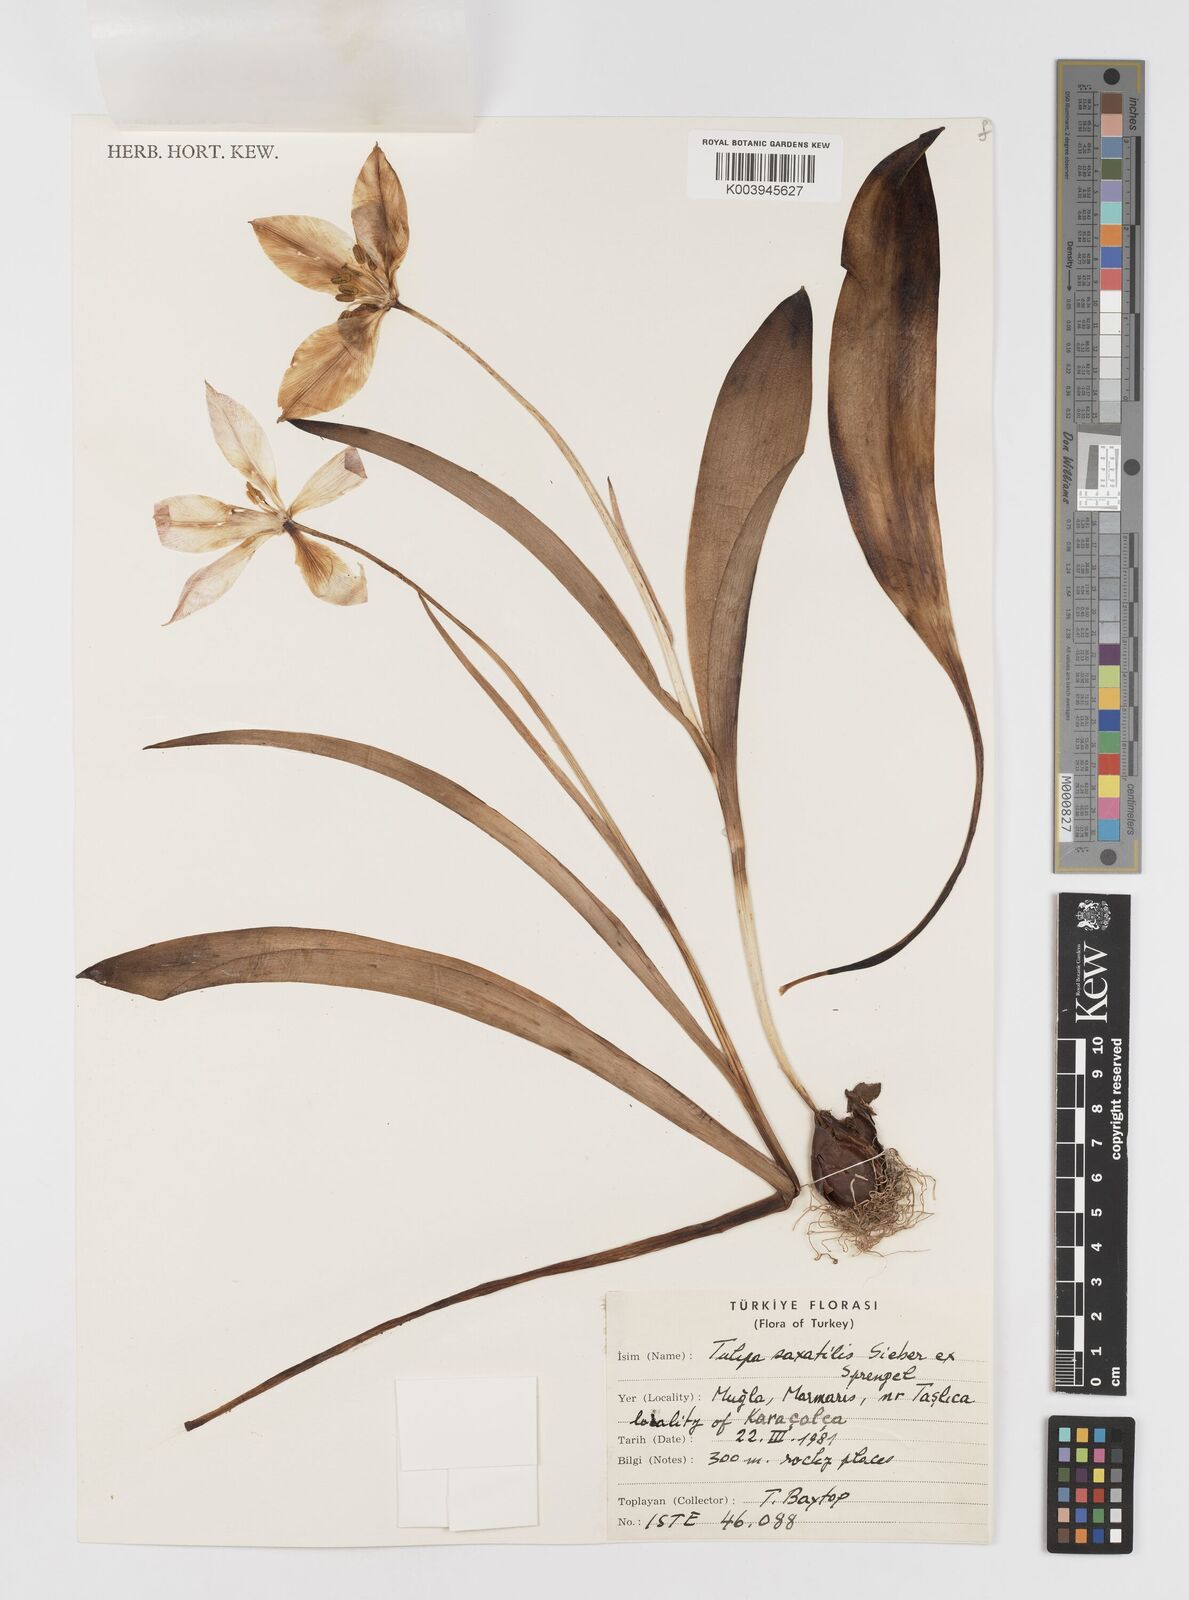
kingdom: Plantae
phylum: Tracheophyta
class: Liliopsida
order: Liliales
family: Liliaceae
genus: Tulipa
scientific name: Tulipa saxatilis
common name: Cretan tulip
